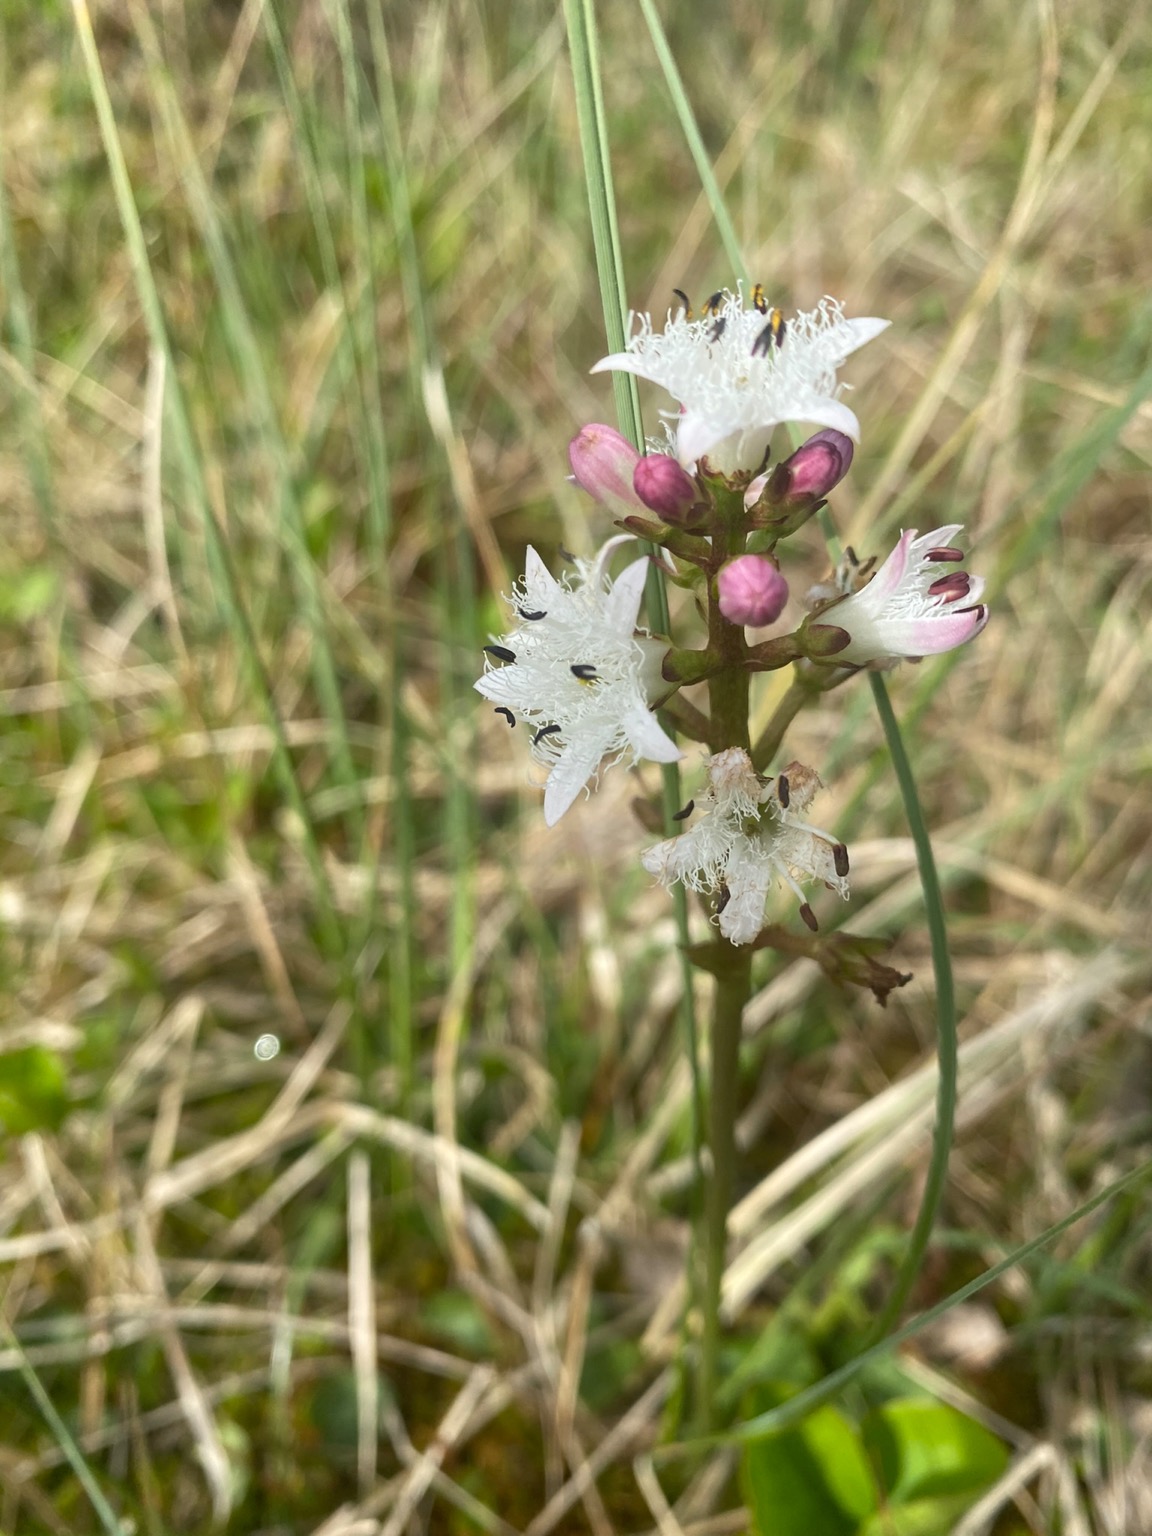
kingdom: Plantae
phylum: Tracheophyta
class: Magnoliopsida
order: Asterales
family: Menyanthaceae
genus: Menyanthes
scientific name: Menyanthes trifoliata
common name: Bukkeblad
